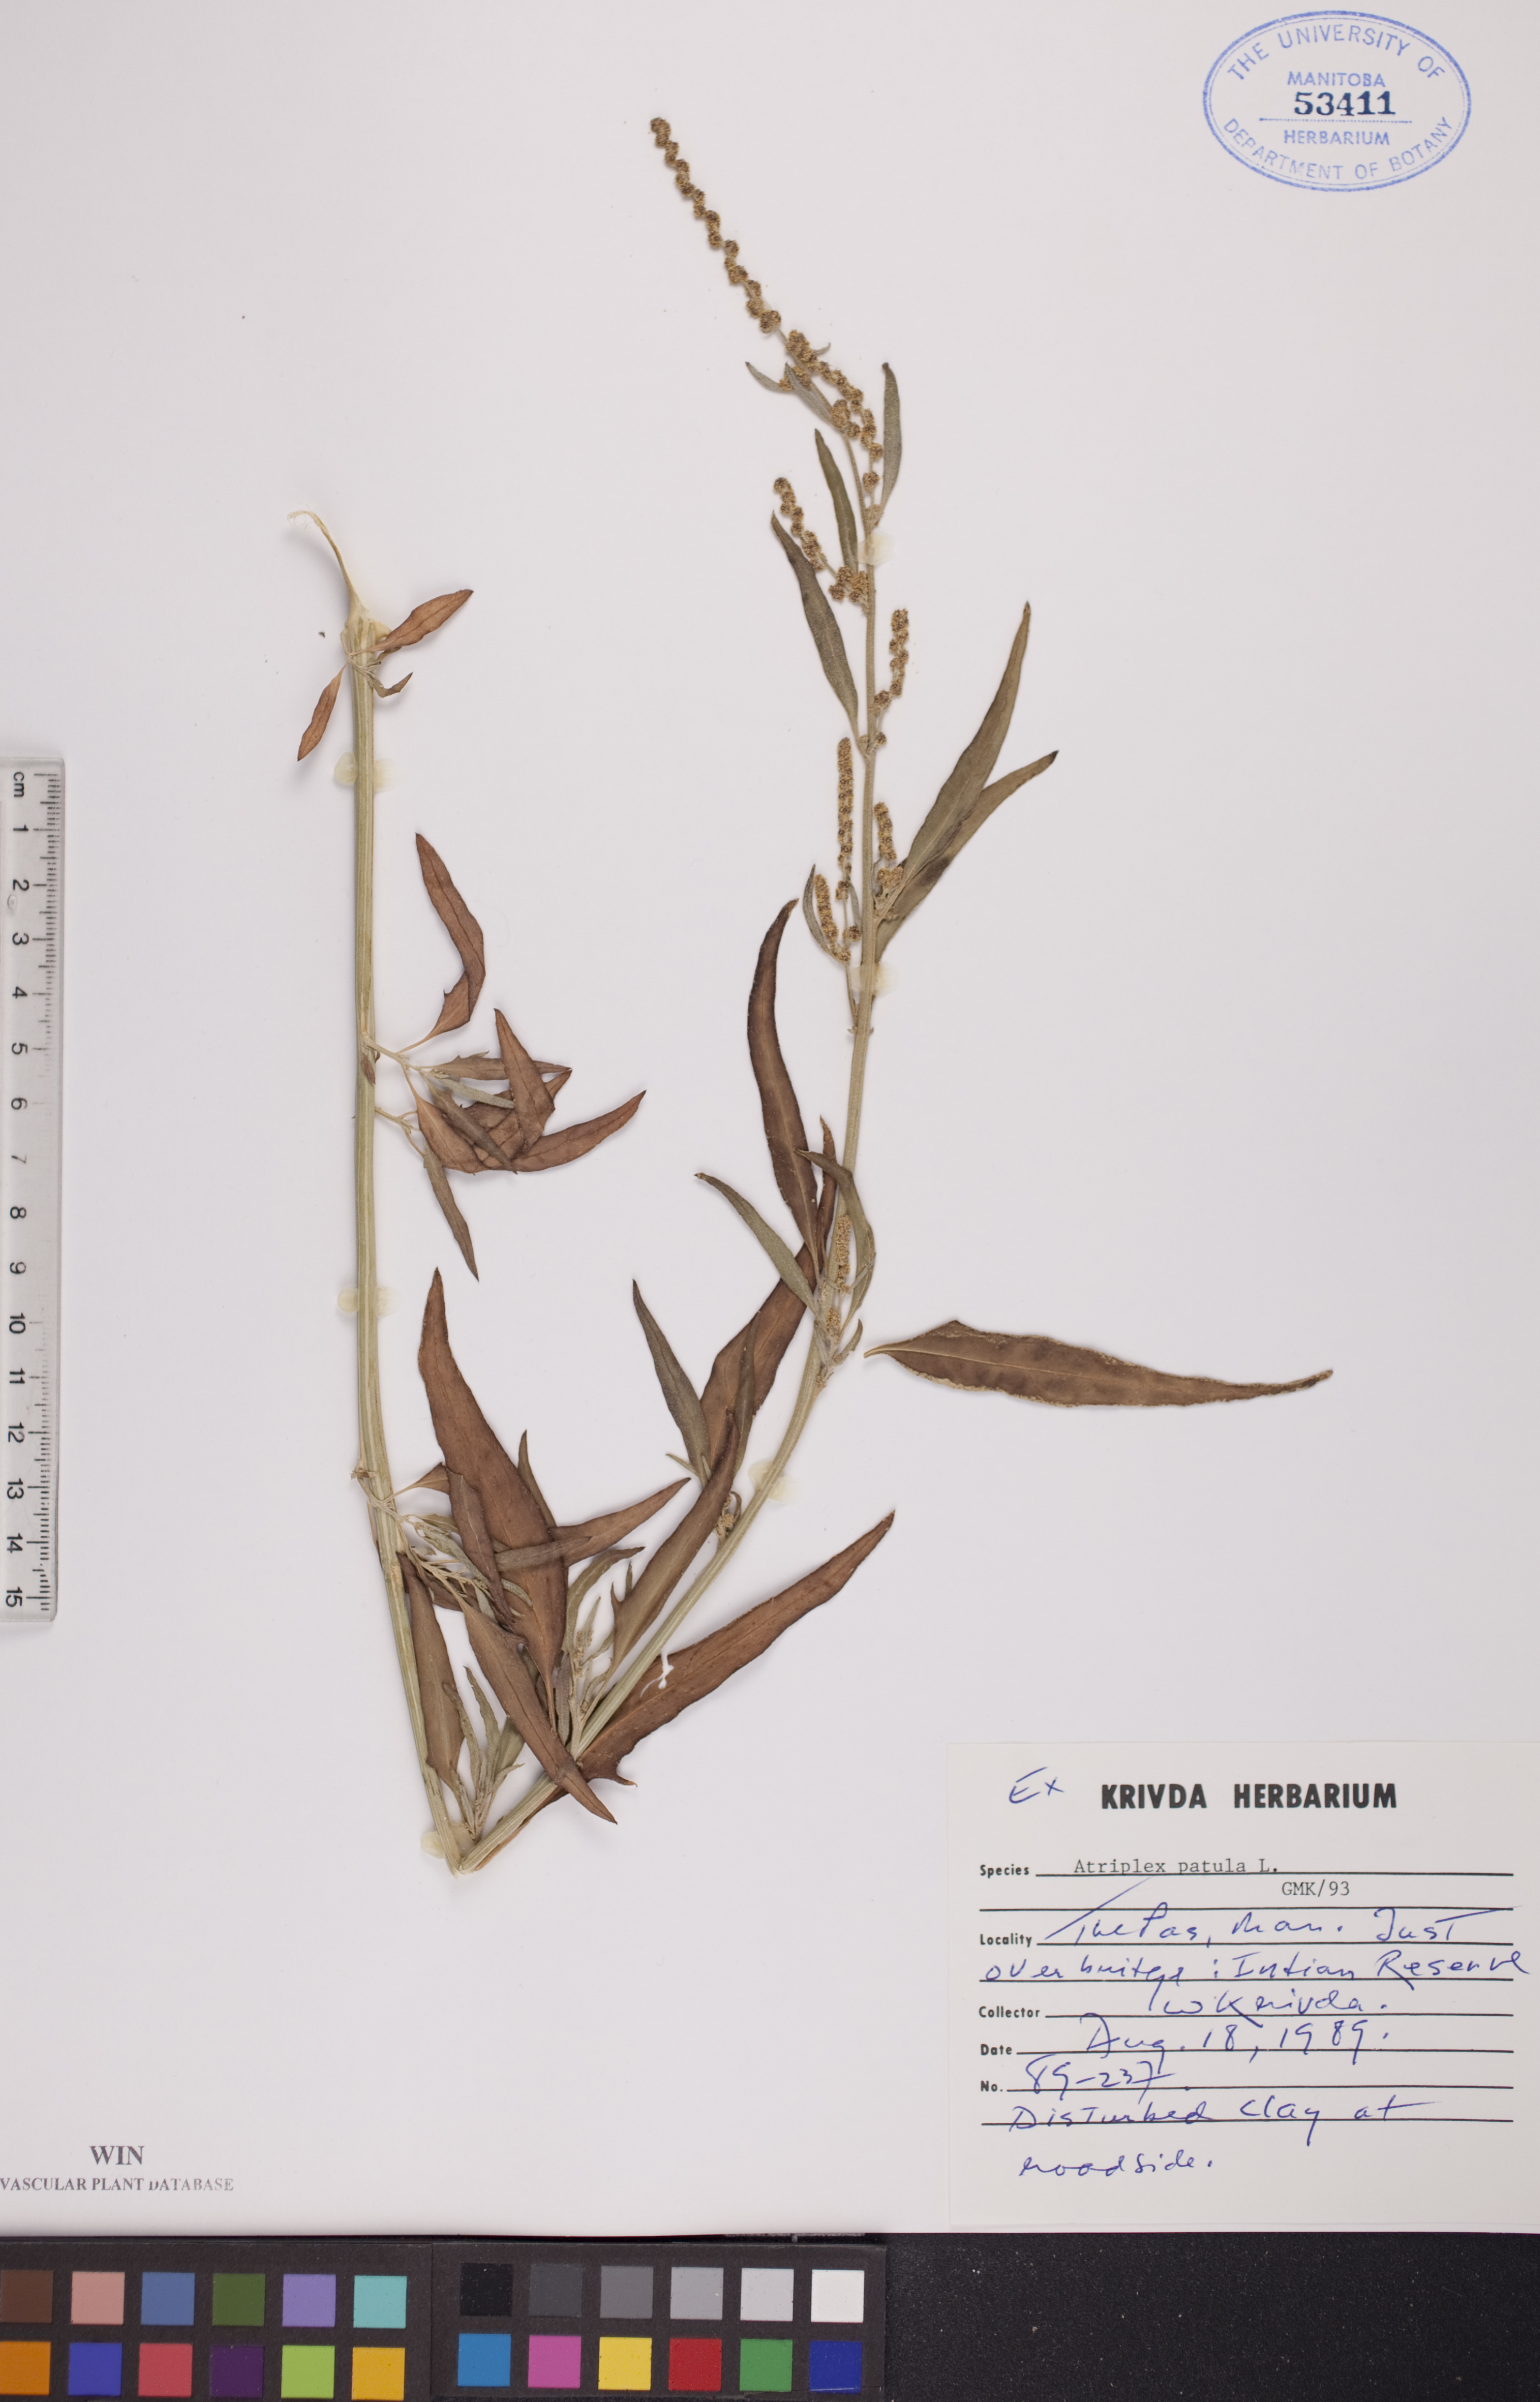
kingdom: Plantae
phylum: Tracheophyta
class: Magnoliopsida
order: Caryophyllales
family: Amaranthaceae
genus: Atriplex
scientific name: Atriplex patula
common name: Common orache
